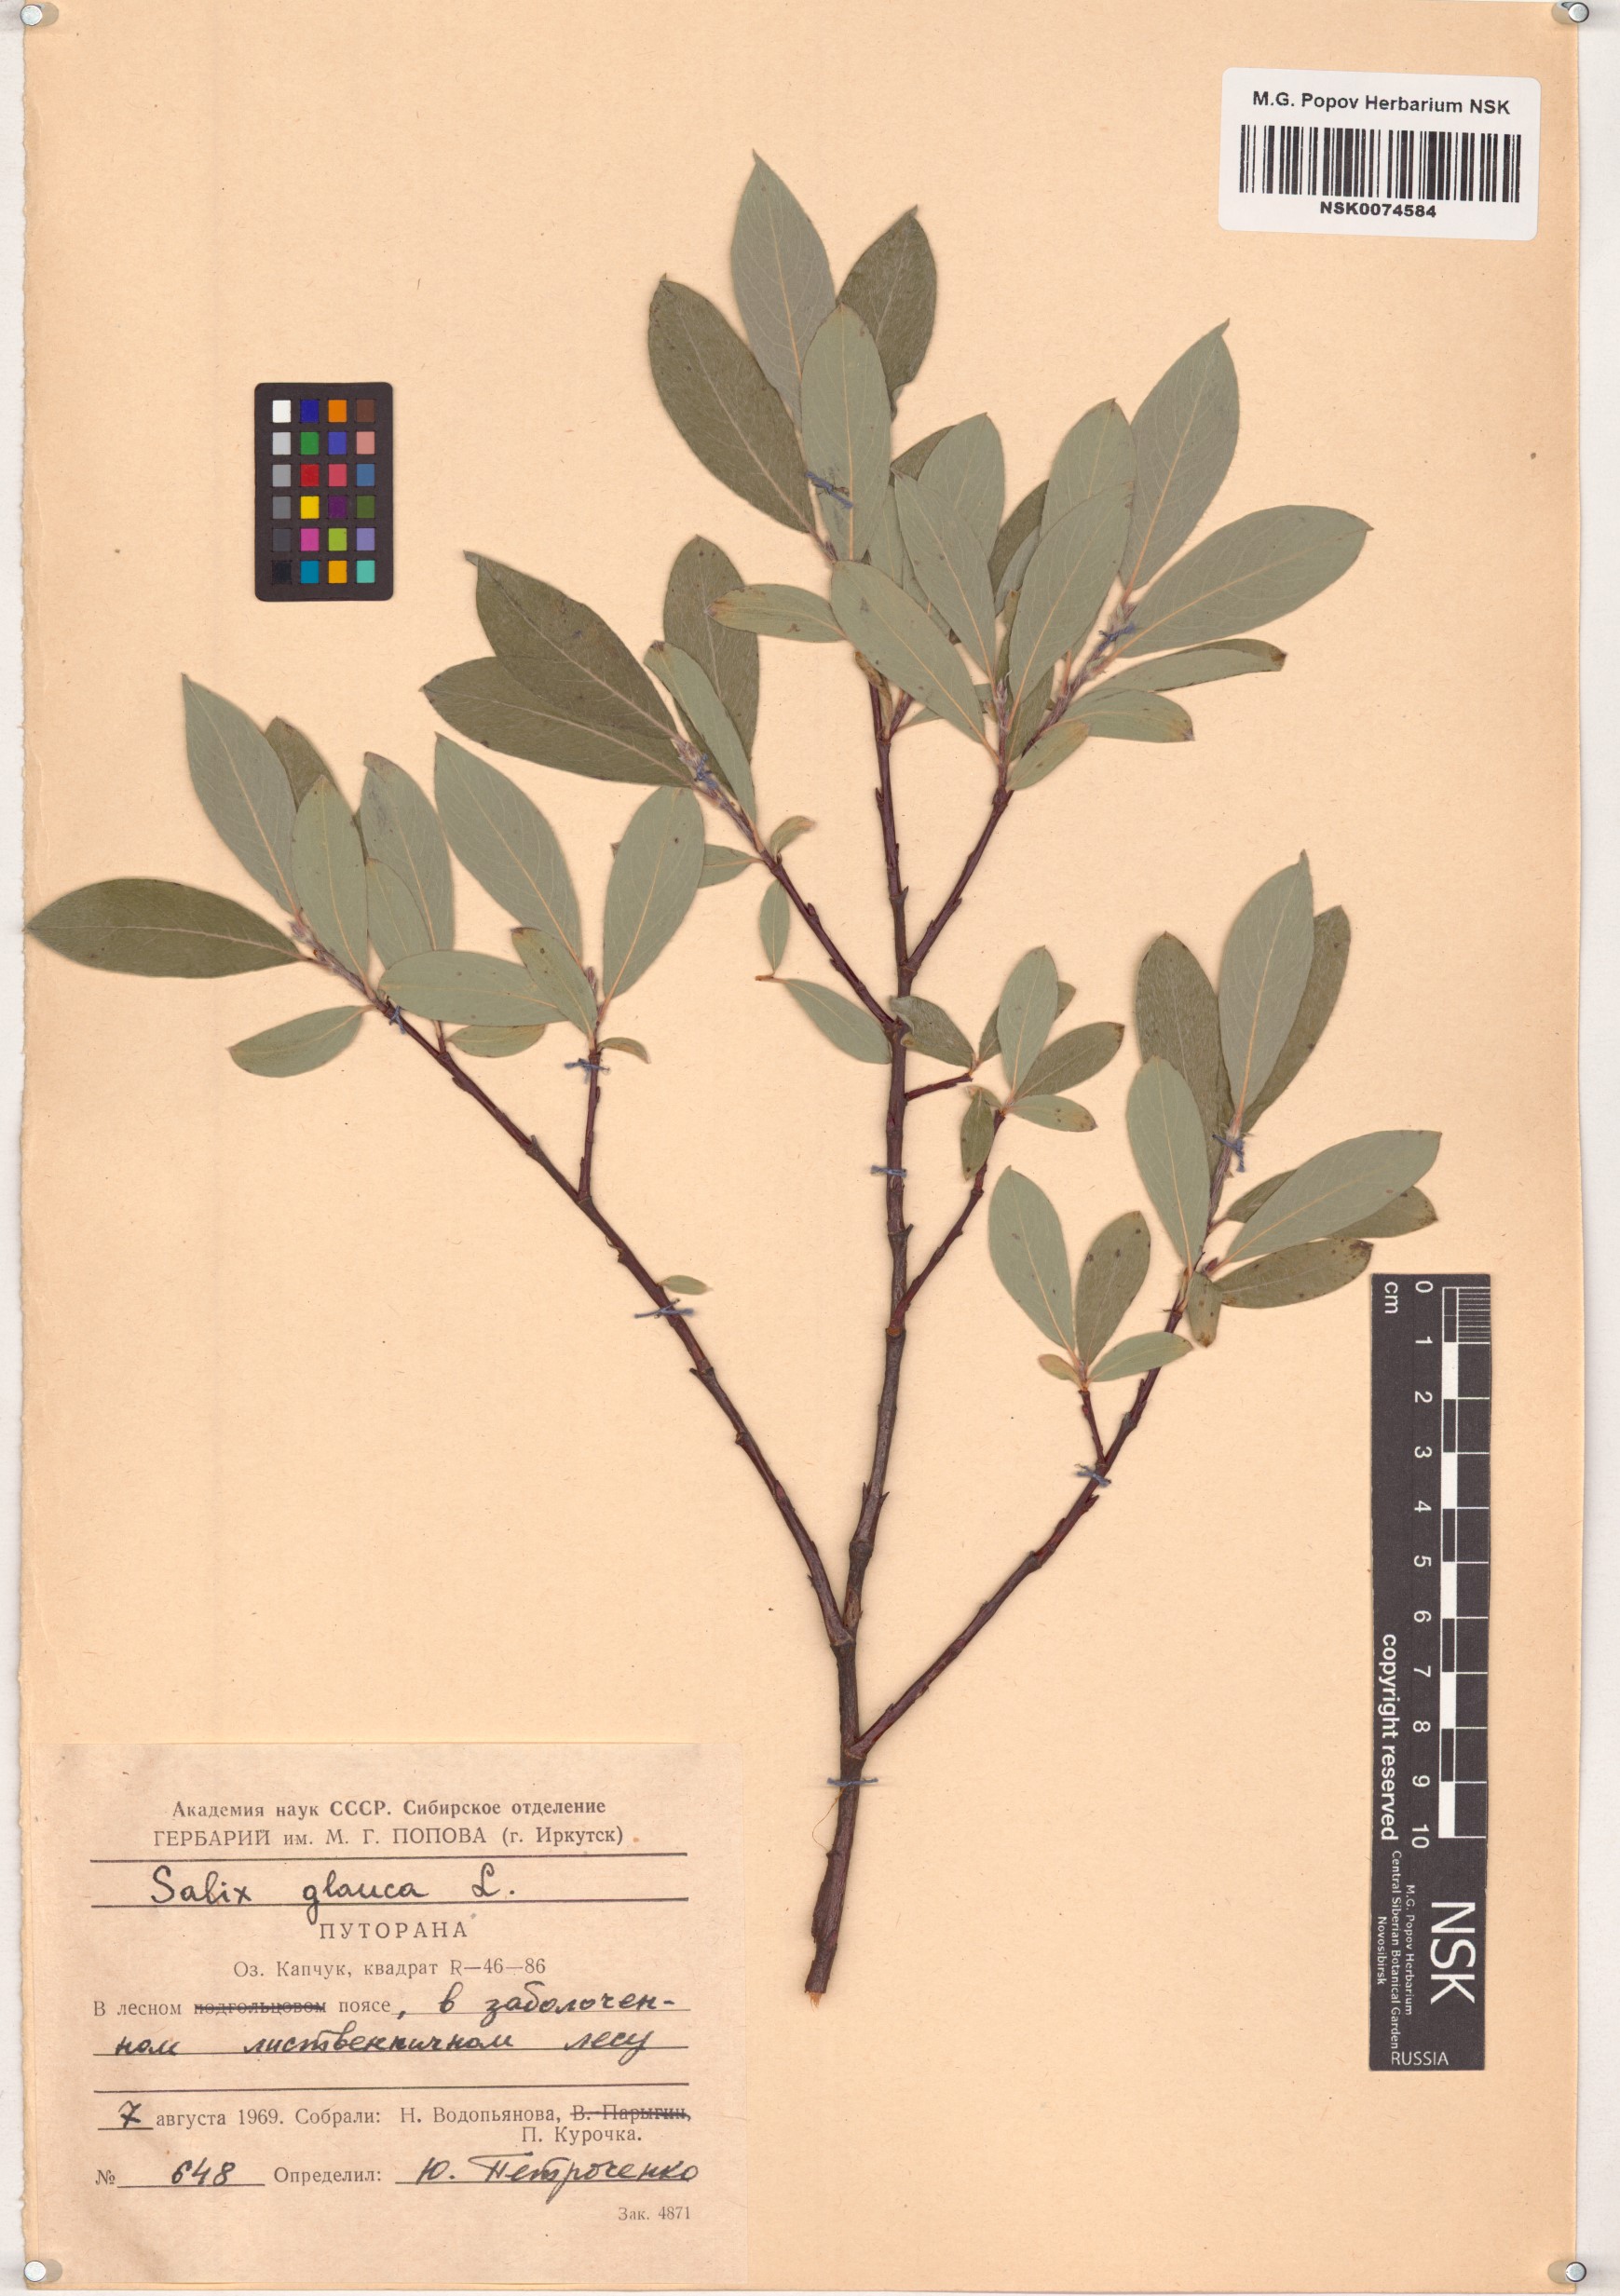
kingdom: Plantae
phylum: Tracheophyta
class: Magnoliopsida
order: Malpighiales
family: Salicaceae
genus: Salix
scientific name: Salix glauca
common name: Glaucous willow
